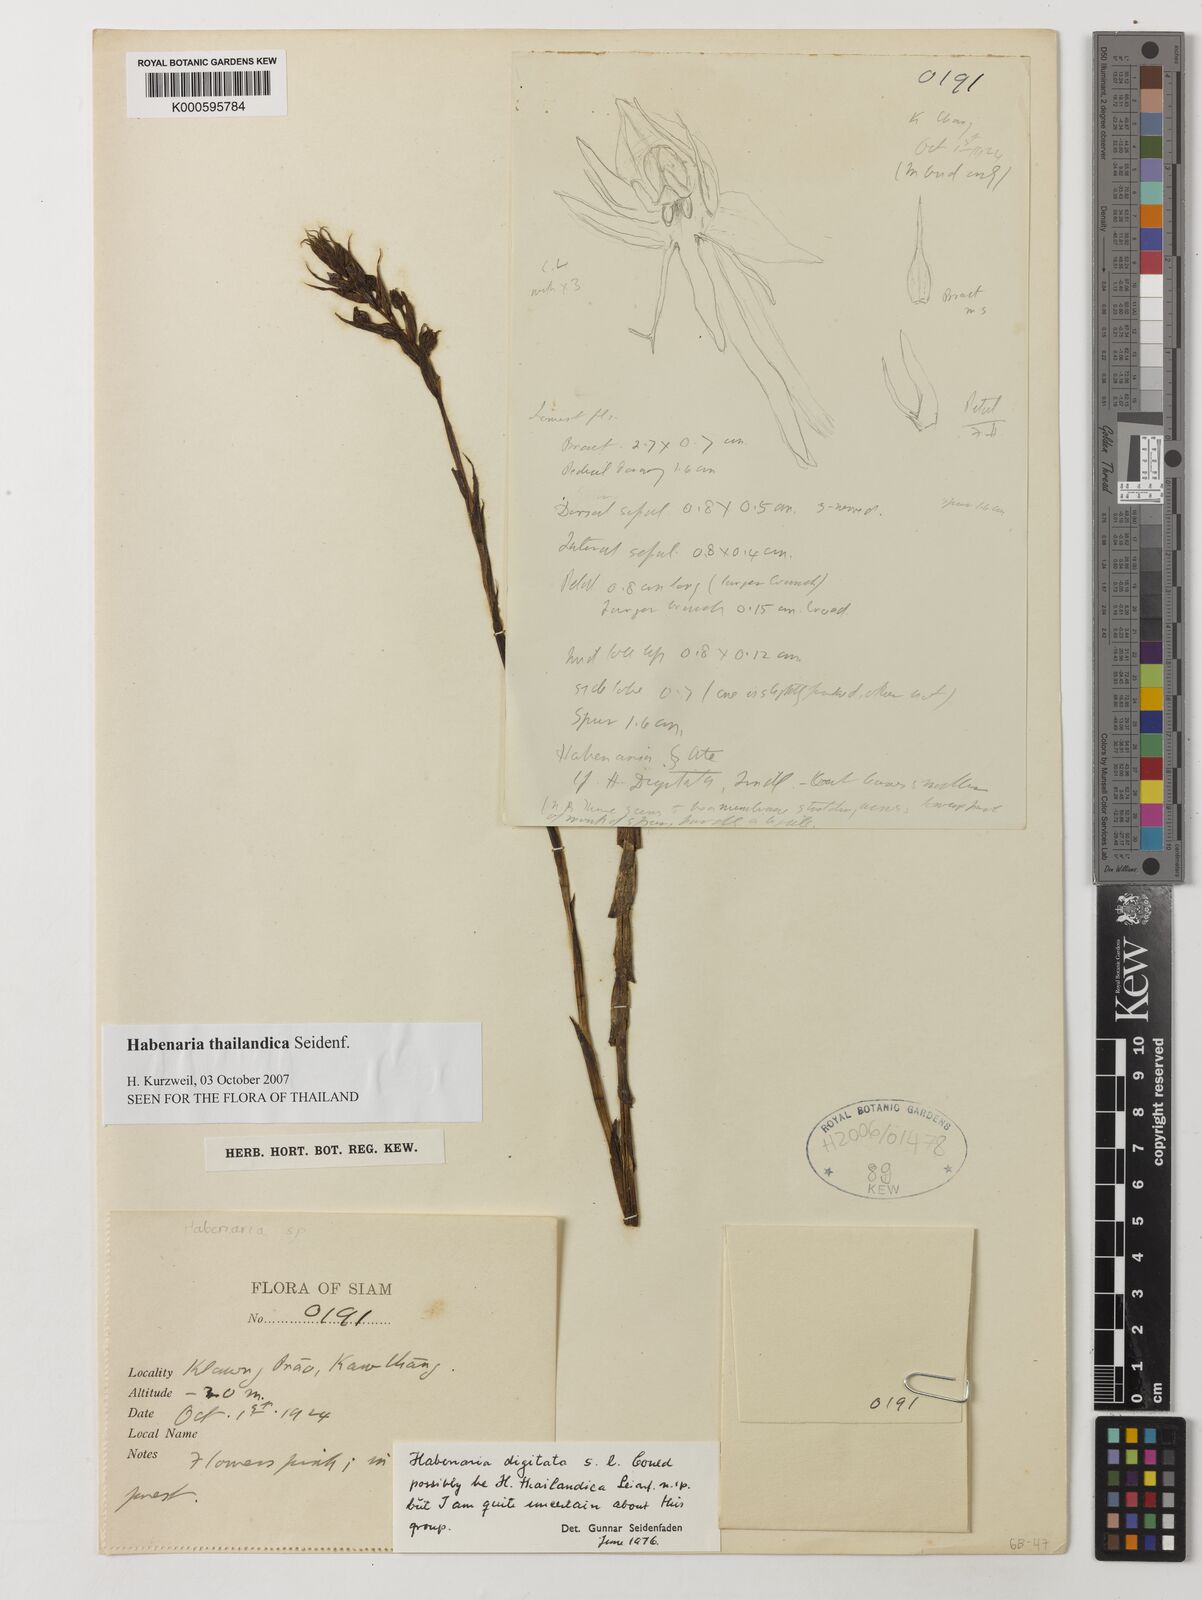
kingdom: Plantae
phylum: Tracheophyta
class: Liliopsida
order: Asparagales
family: Orchidaceae
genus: Habenaria
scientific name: Habenaria gibsonii
